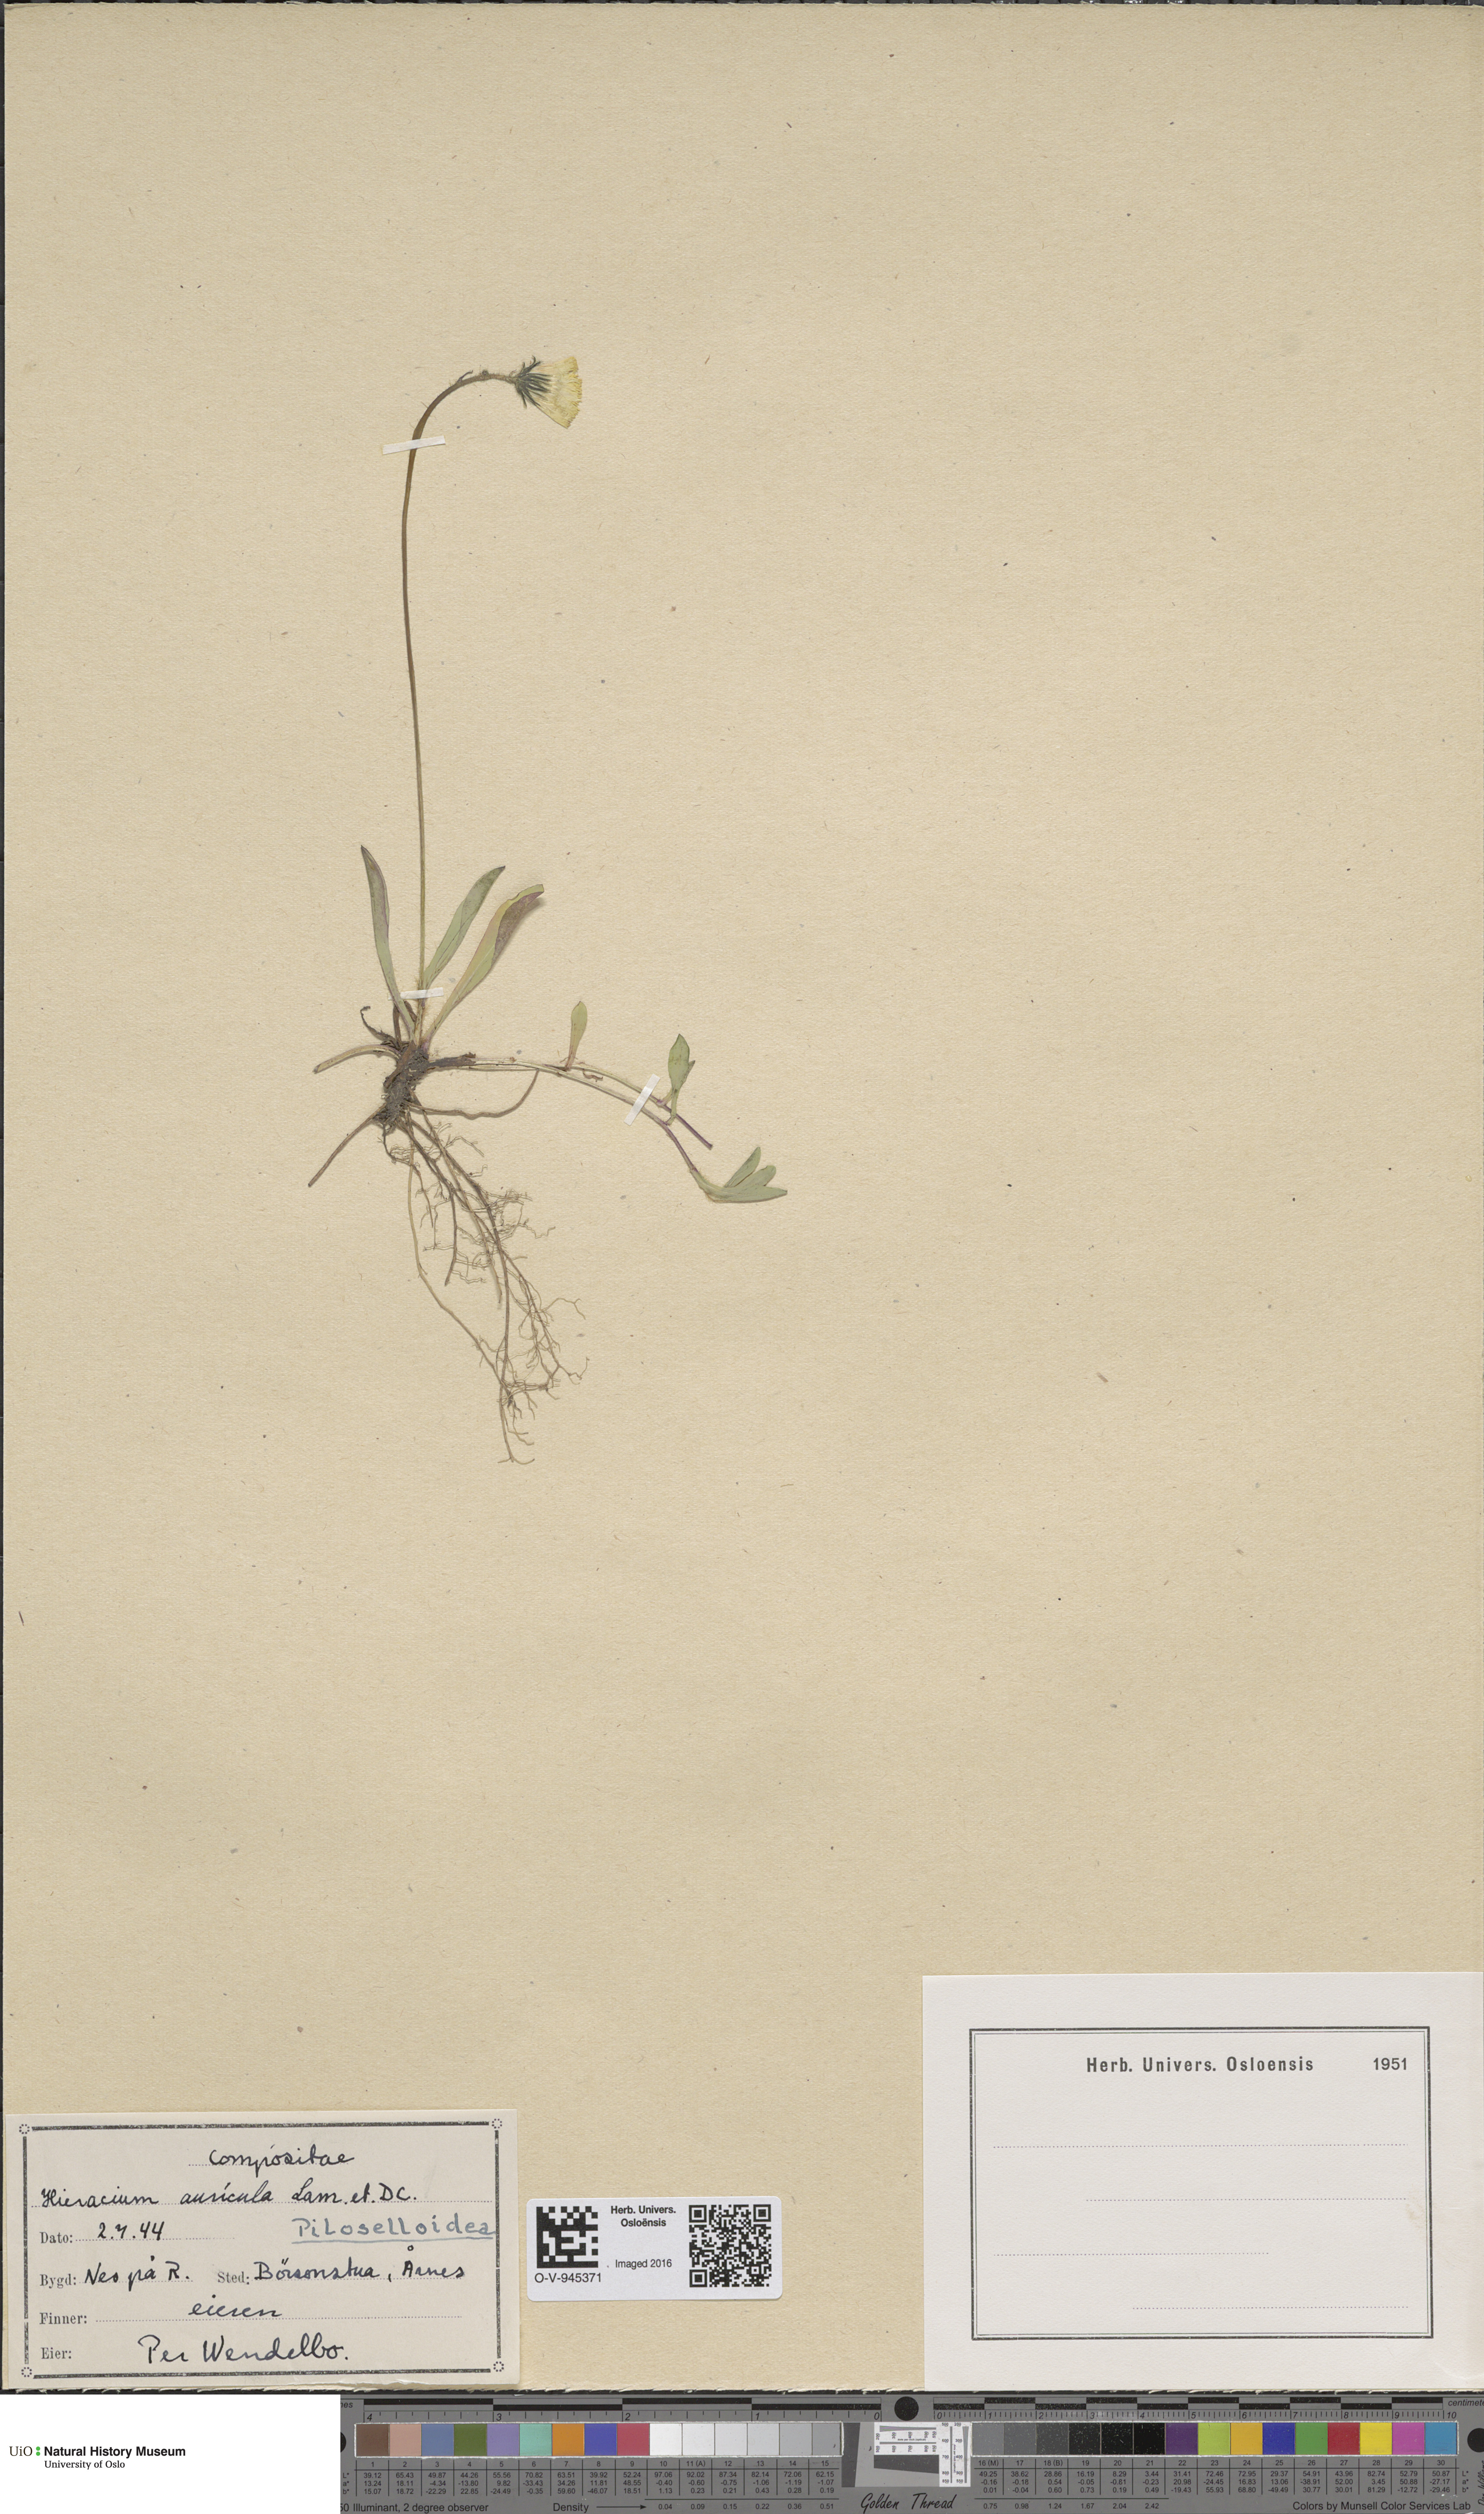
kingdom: Plantae
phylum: Tracheophyta
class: Magnoliopsida
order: Asterales
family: Asteraceae
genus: Pilosella
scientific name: Pilosella lactucella
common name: Glaucous fox-and-cubs
